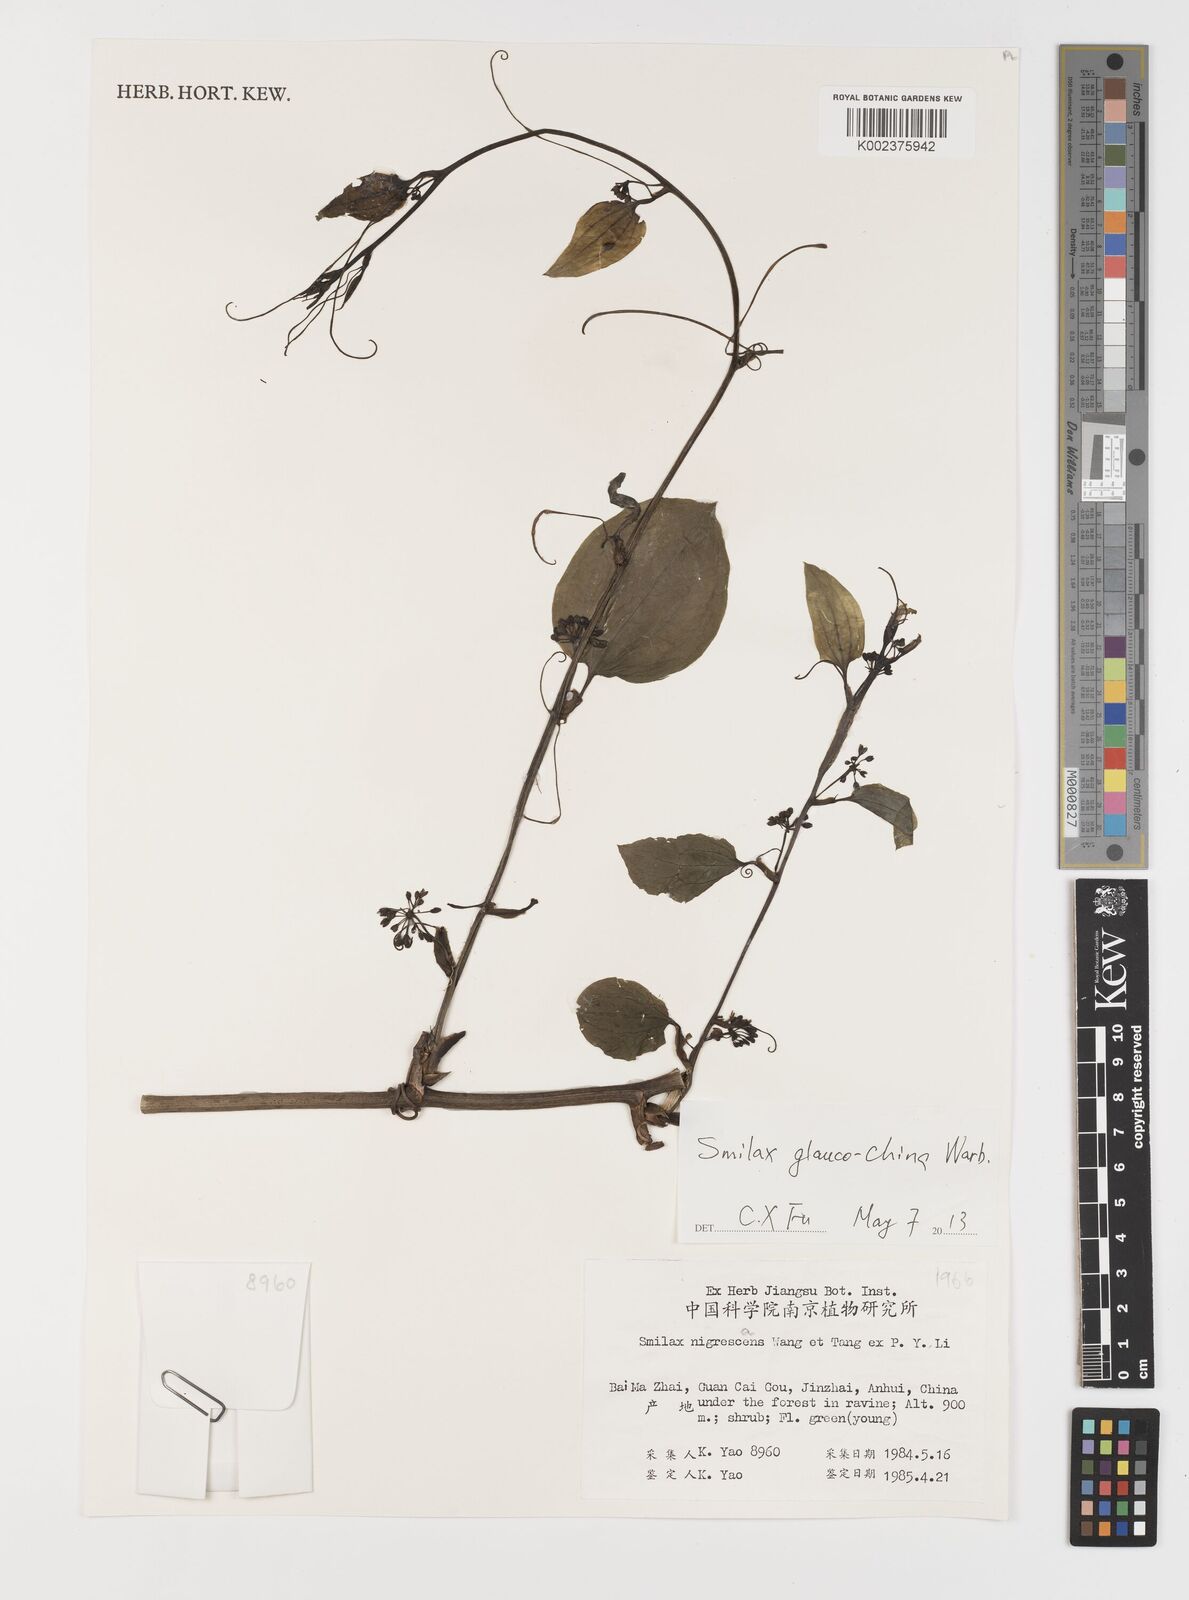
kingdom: Plantae
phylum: Tracheophyta
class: Liliopsida
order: Liliales
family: Smilacaceae
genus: Smilax
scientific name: Smilax glaucochina
